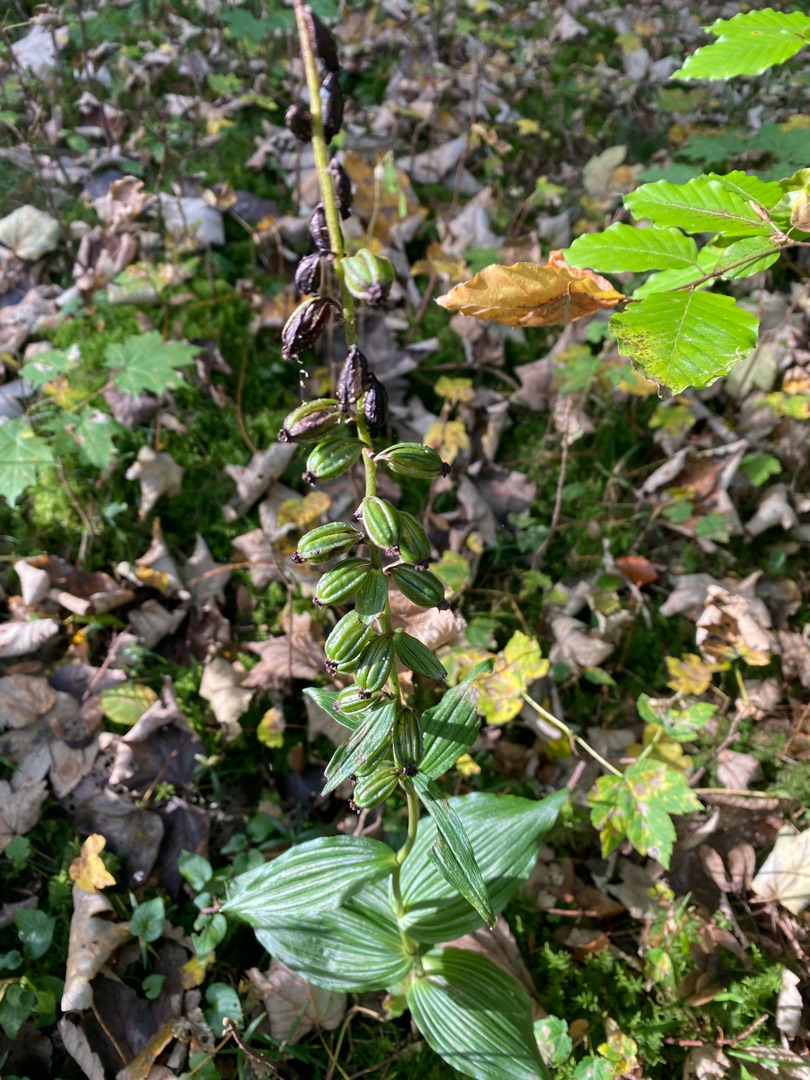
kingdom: Plantae
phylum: Tracheophyta
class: Liliopsida
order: Asparagales
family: Orchidaceae
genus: Epipactis
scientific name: Epipactis helleborine
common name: Skov-hullæbe
